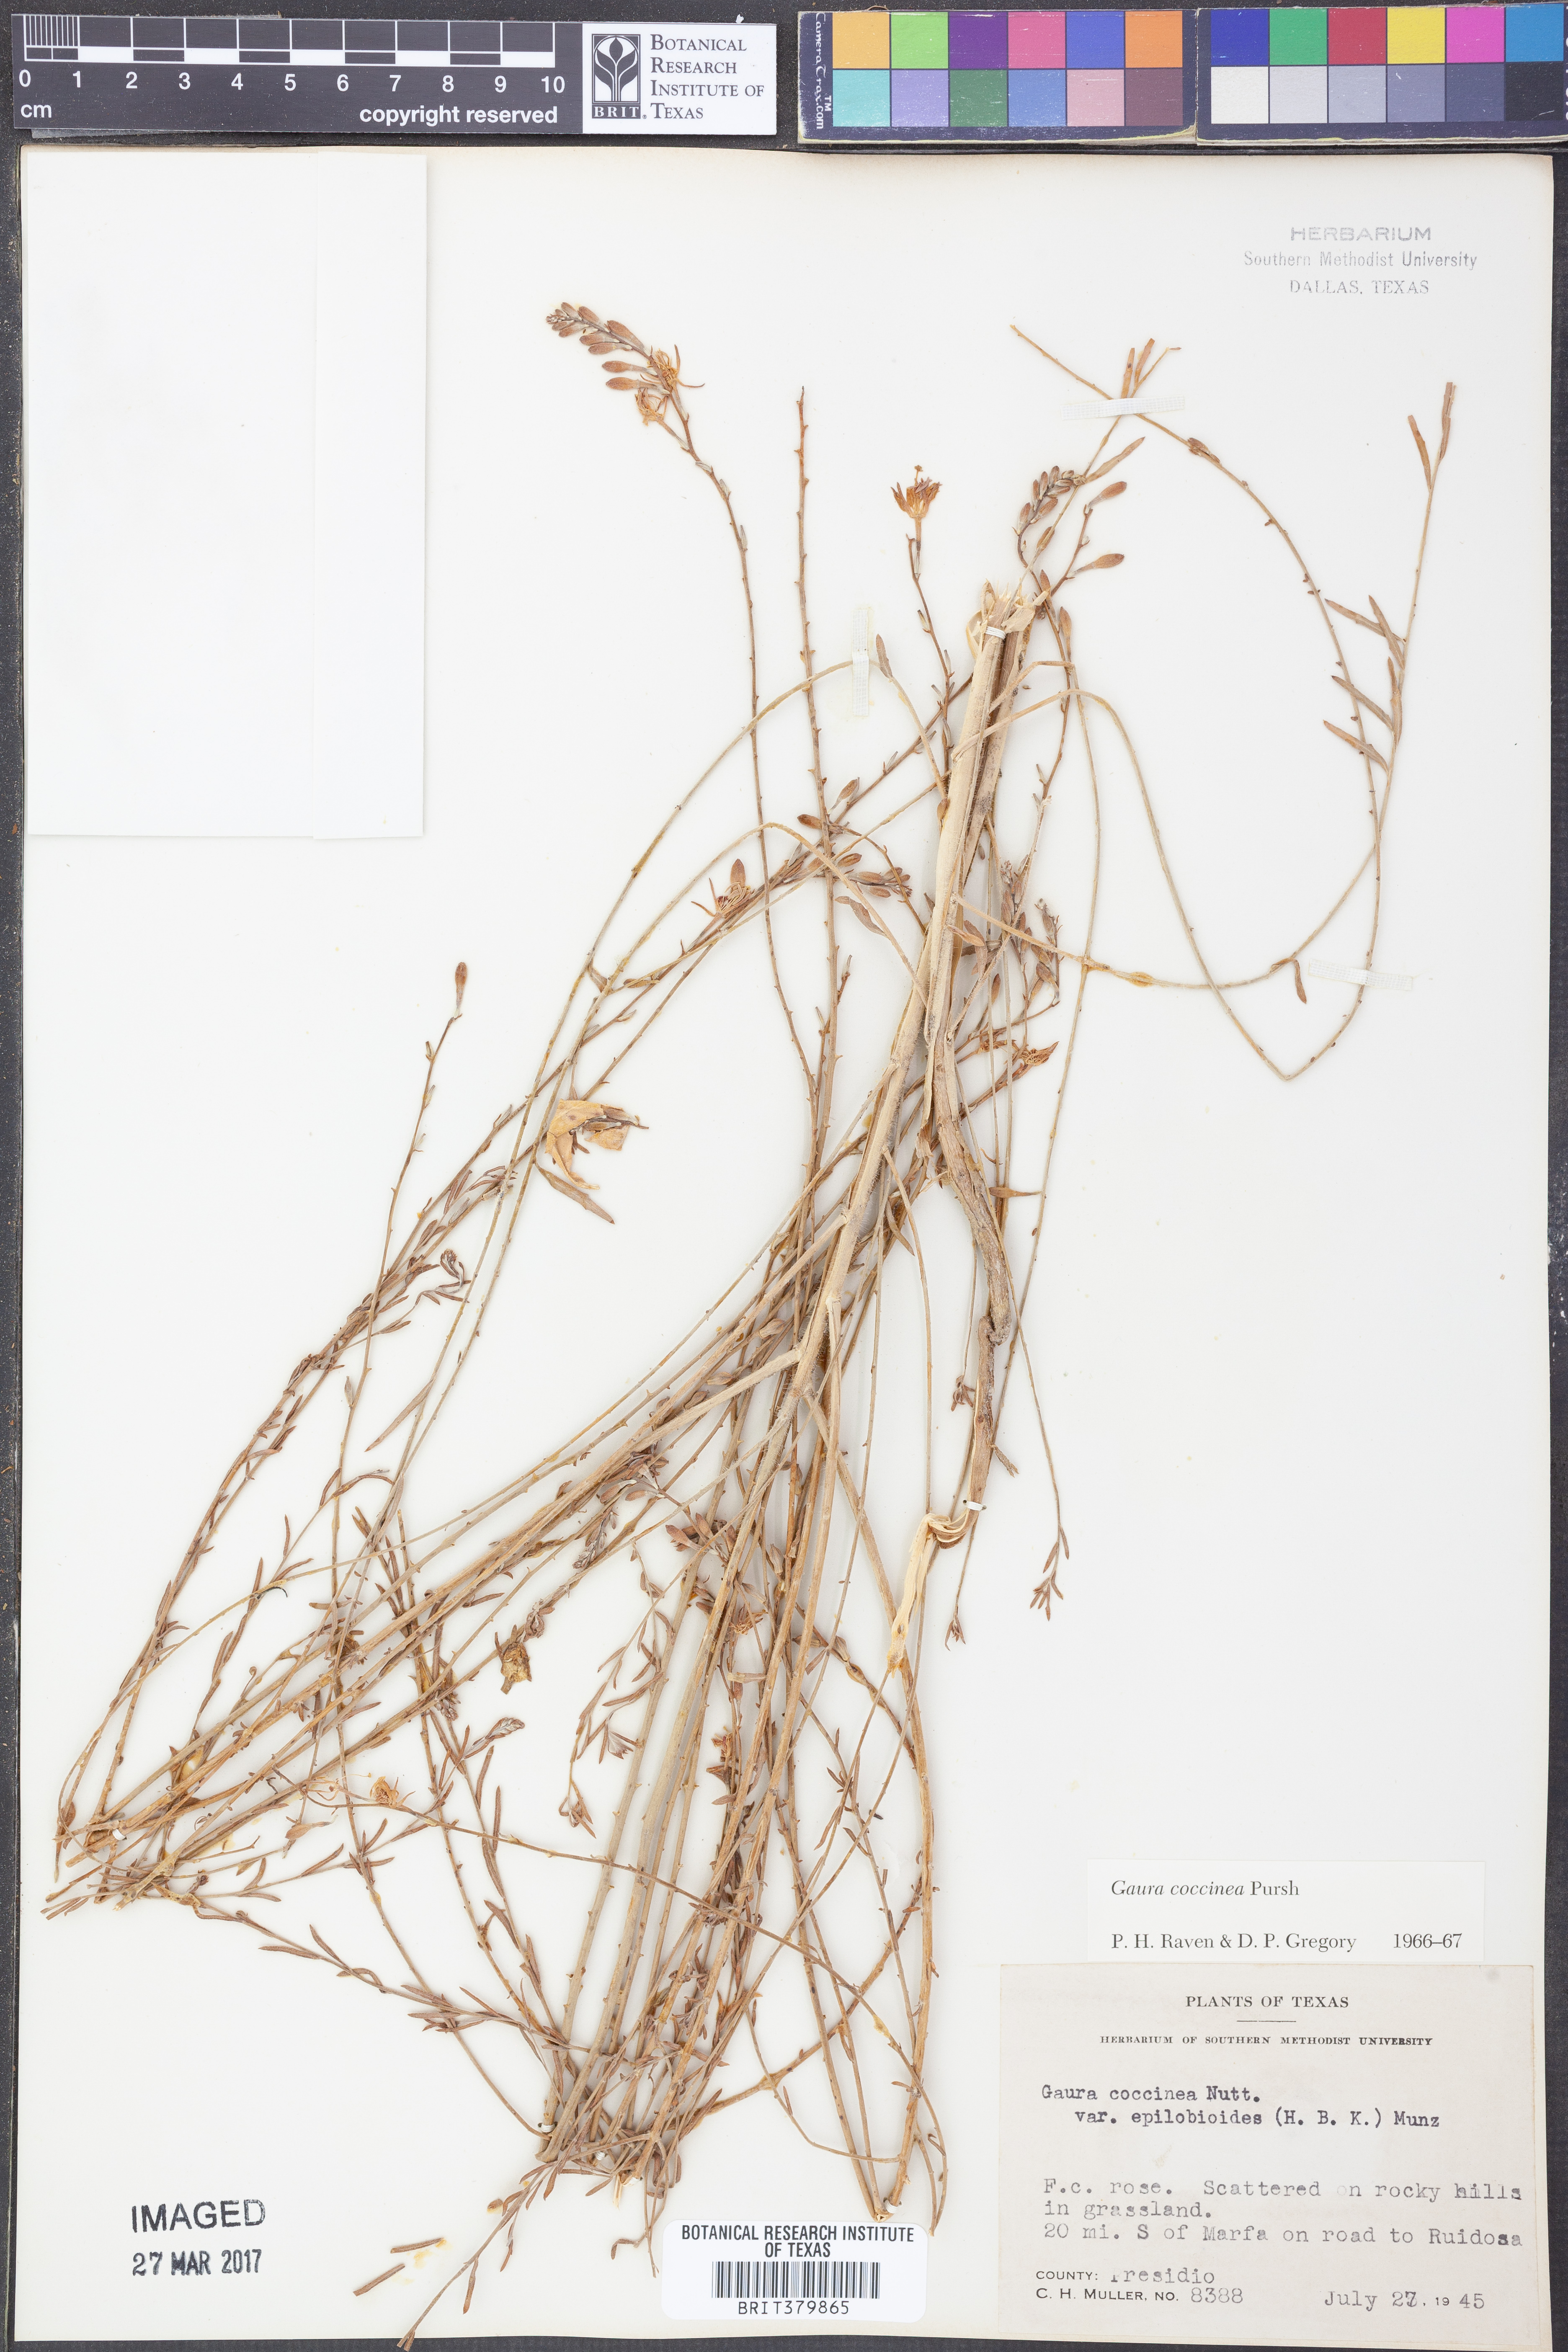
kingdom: Plantae
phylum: Tracheophyta
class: Magnoliopsida
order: Myrtales
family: Onagraceae
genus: Oenothera
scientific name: Oenothera suffrutescens
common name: Scarlet beeblossom
